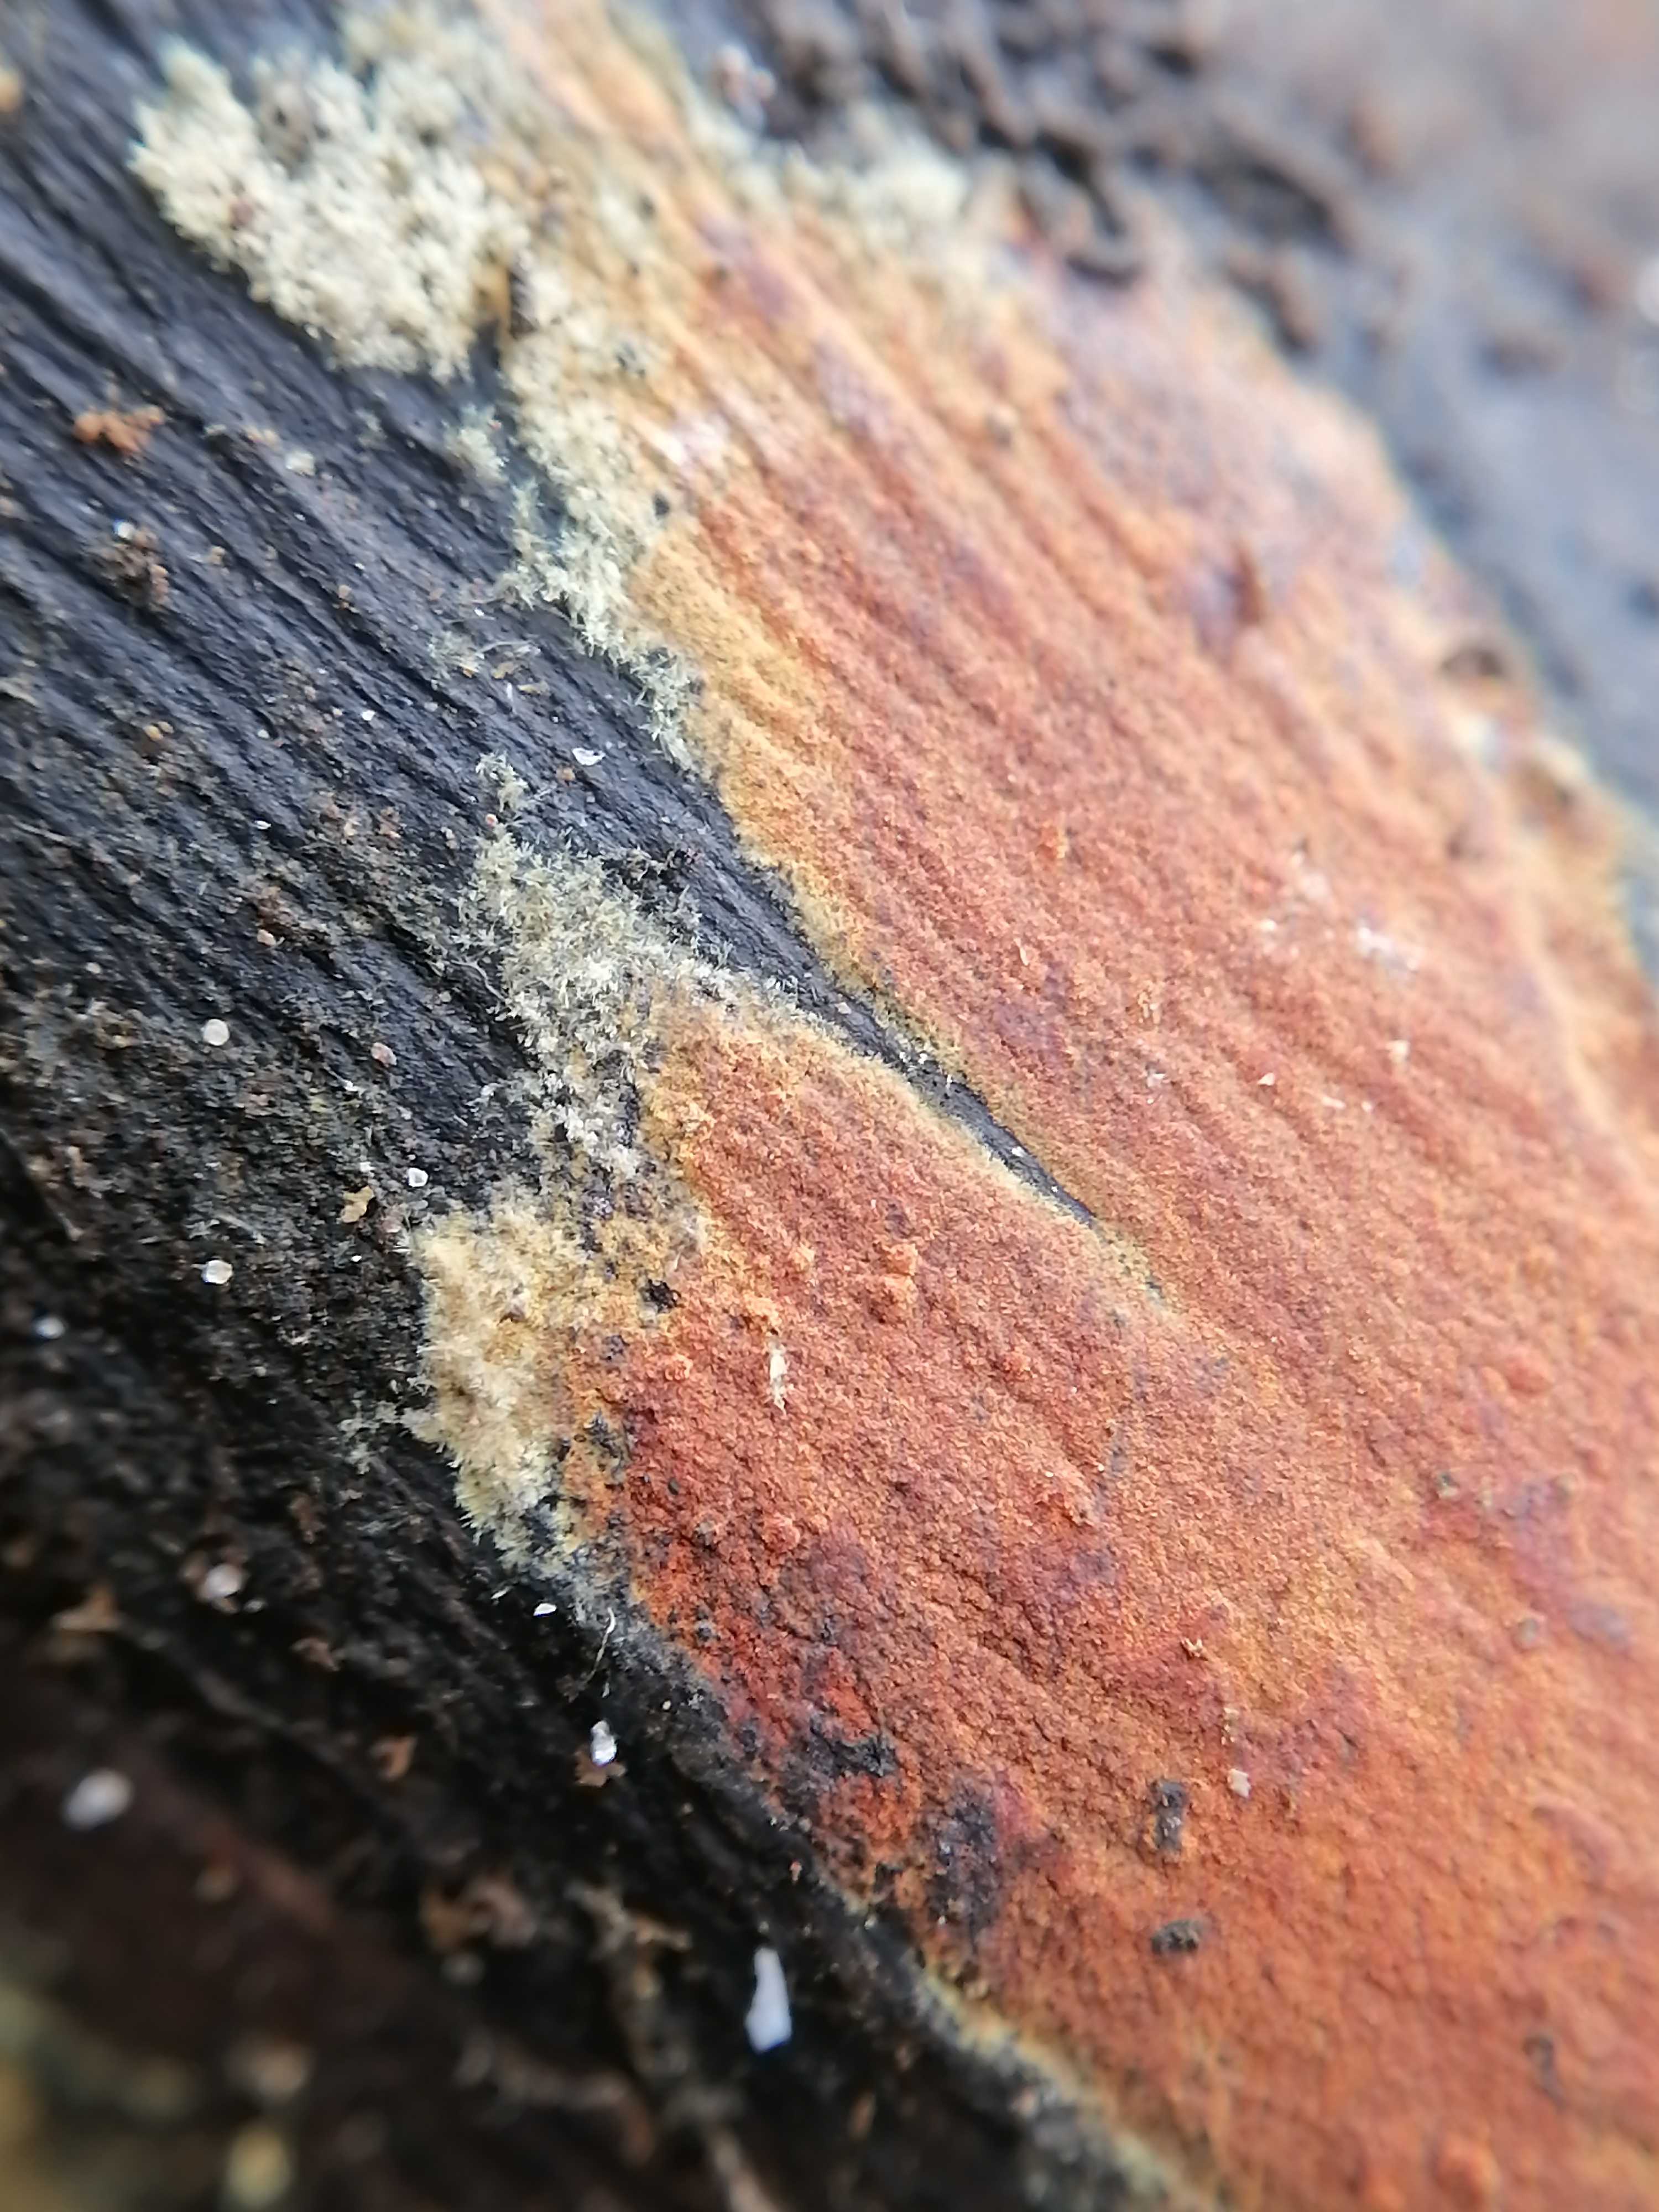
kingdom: Fungi
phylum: Ascomycota
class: Sordariomycetes
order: Xylariales
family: Hypoxylaceae
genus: Hypoxylon
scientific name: Hypoxylon
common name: kulbær
